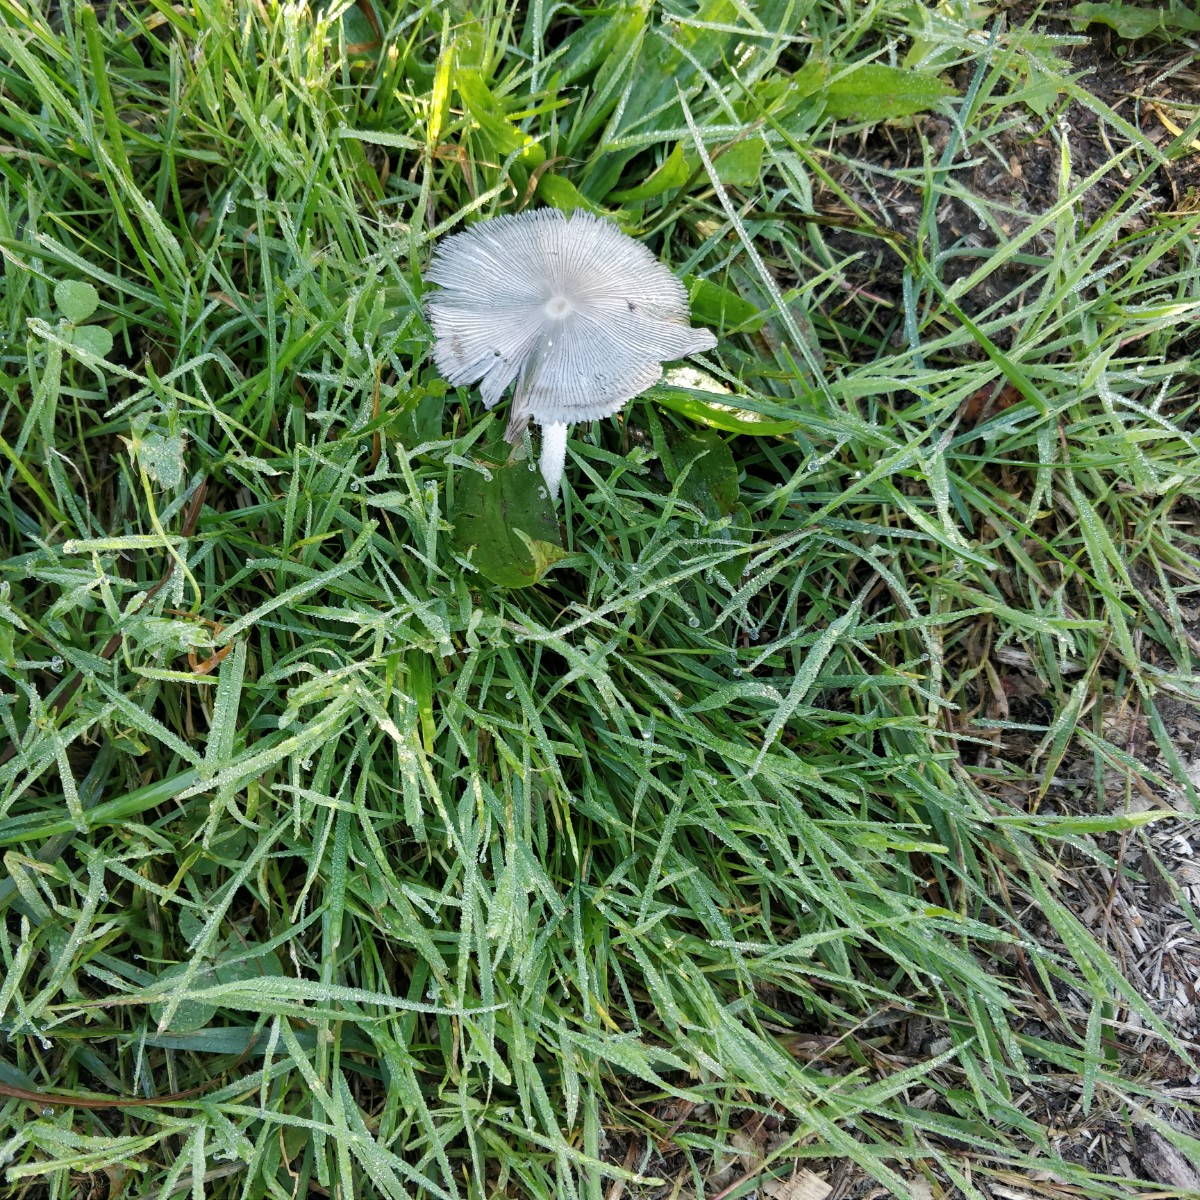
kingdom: Fungi
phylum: Basidiomycota
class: Agaricomycetes
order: Agaricales
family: Psathyrellaceae
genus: Coprinopsis
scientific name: Coprinopsis
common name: blækhat
